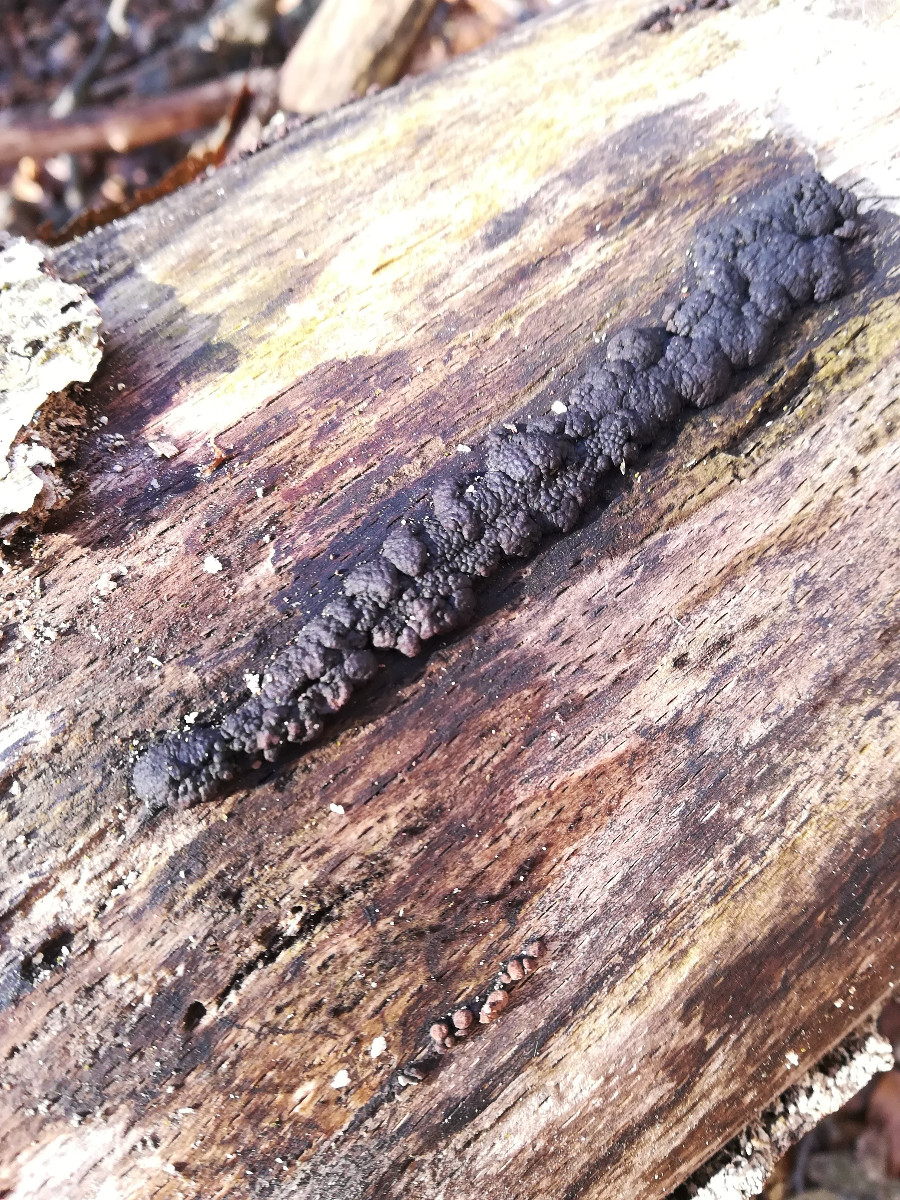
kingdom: Fungi
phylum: Ascomycota
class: Sordariomycetes
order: Xylariales
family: Hypoxylaceae
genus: Jackrogersella
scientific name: Jackrogersella cohaerens
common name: sammenflydende kulbær
